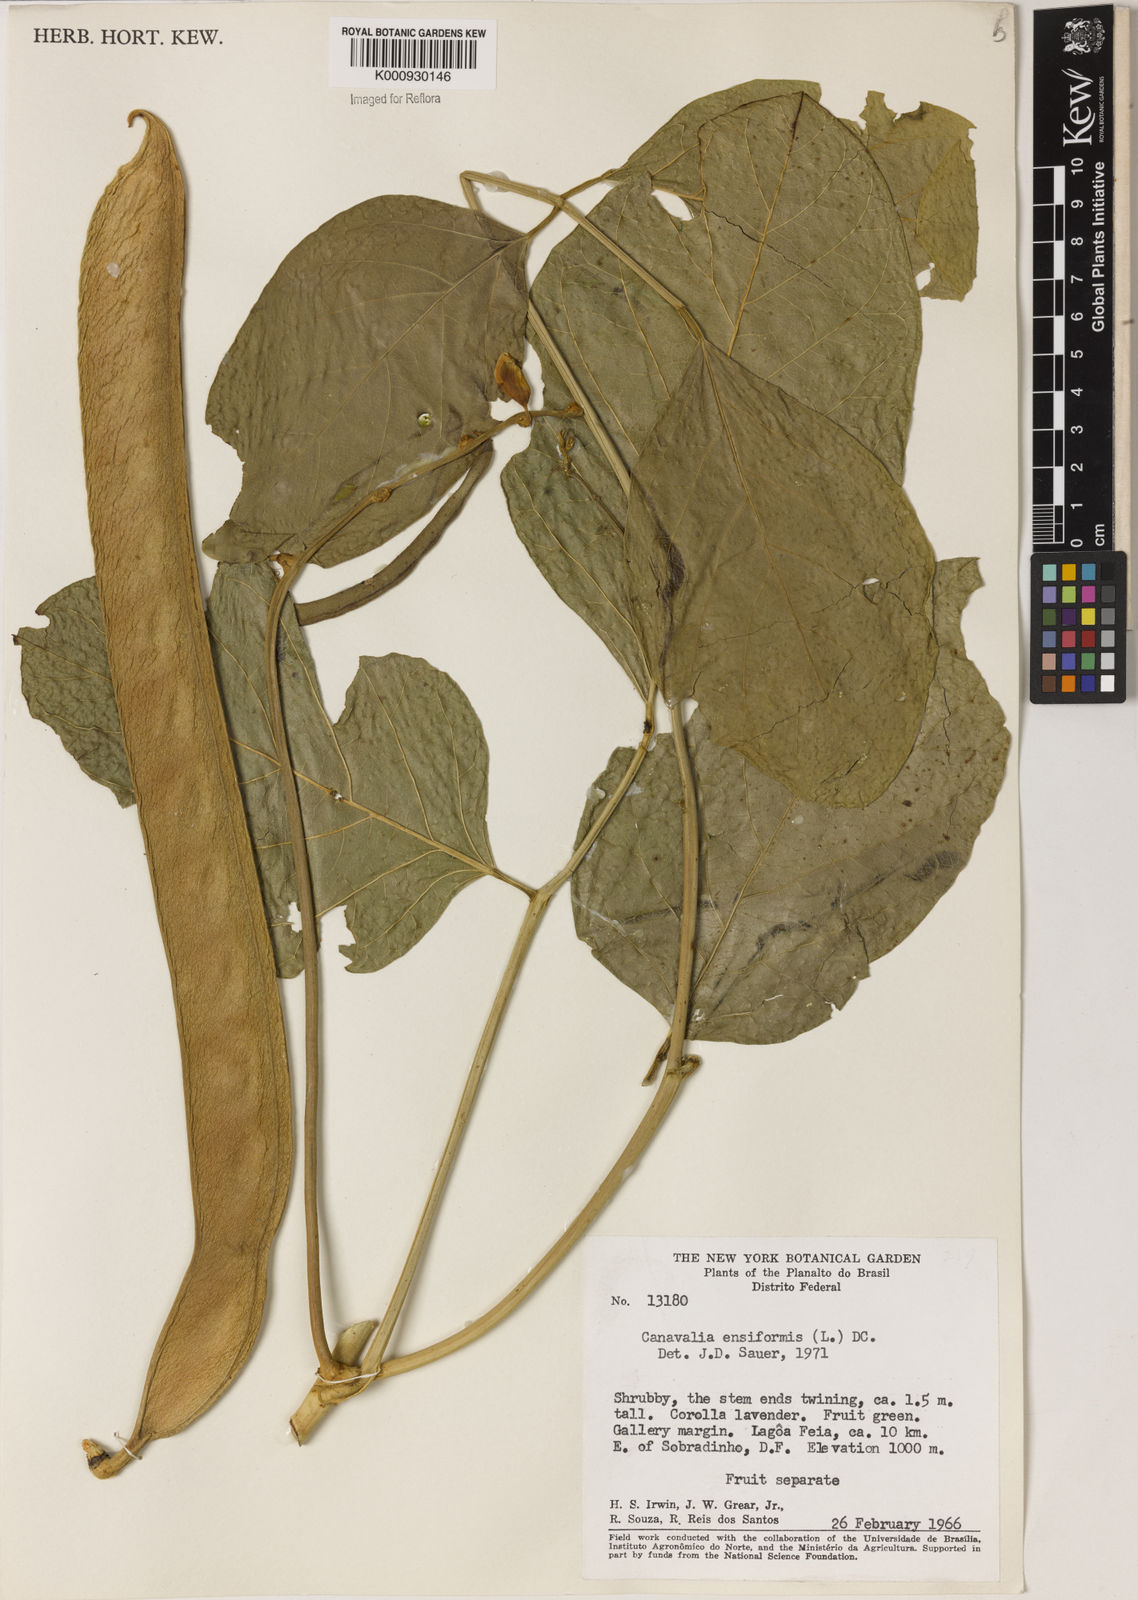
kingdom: Plantae
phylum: Tracheophyta
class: Magnoliopsida
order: Fabales
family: Fabaceae
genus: Canavalia
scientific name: Canavalia ensiformis
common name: Jack bean
